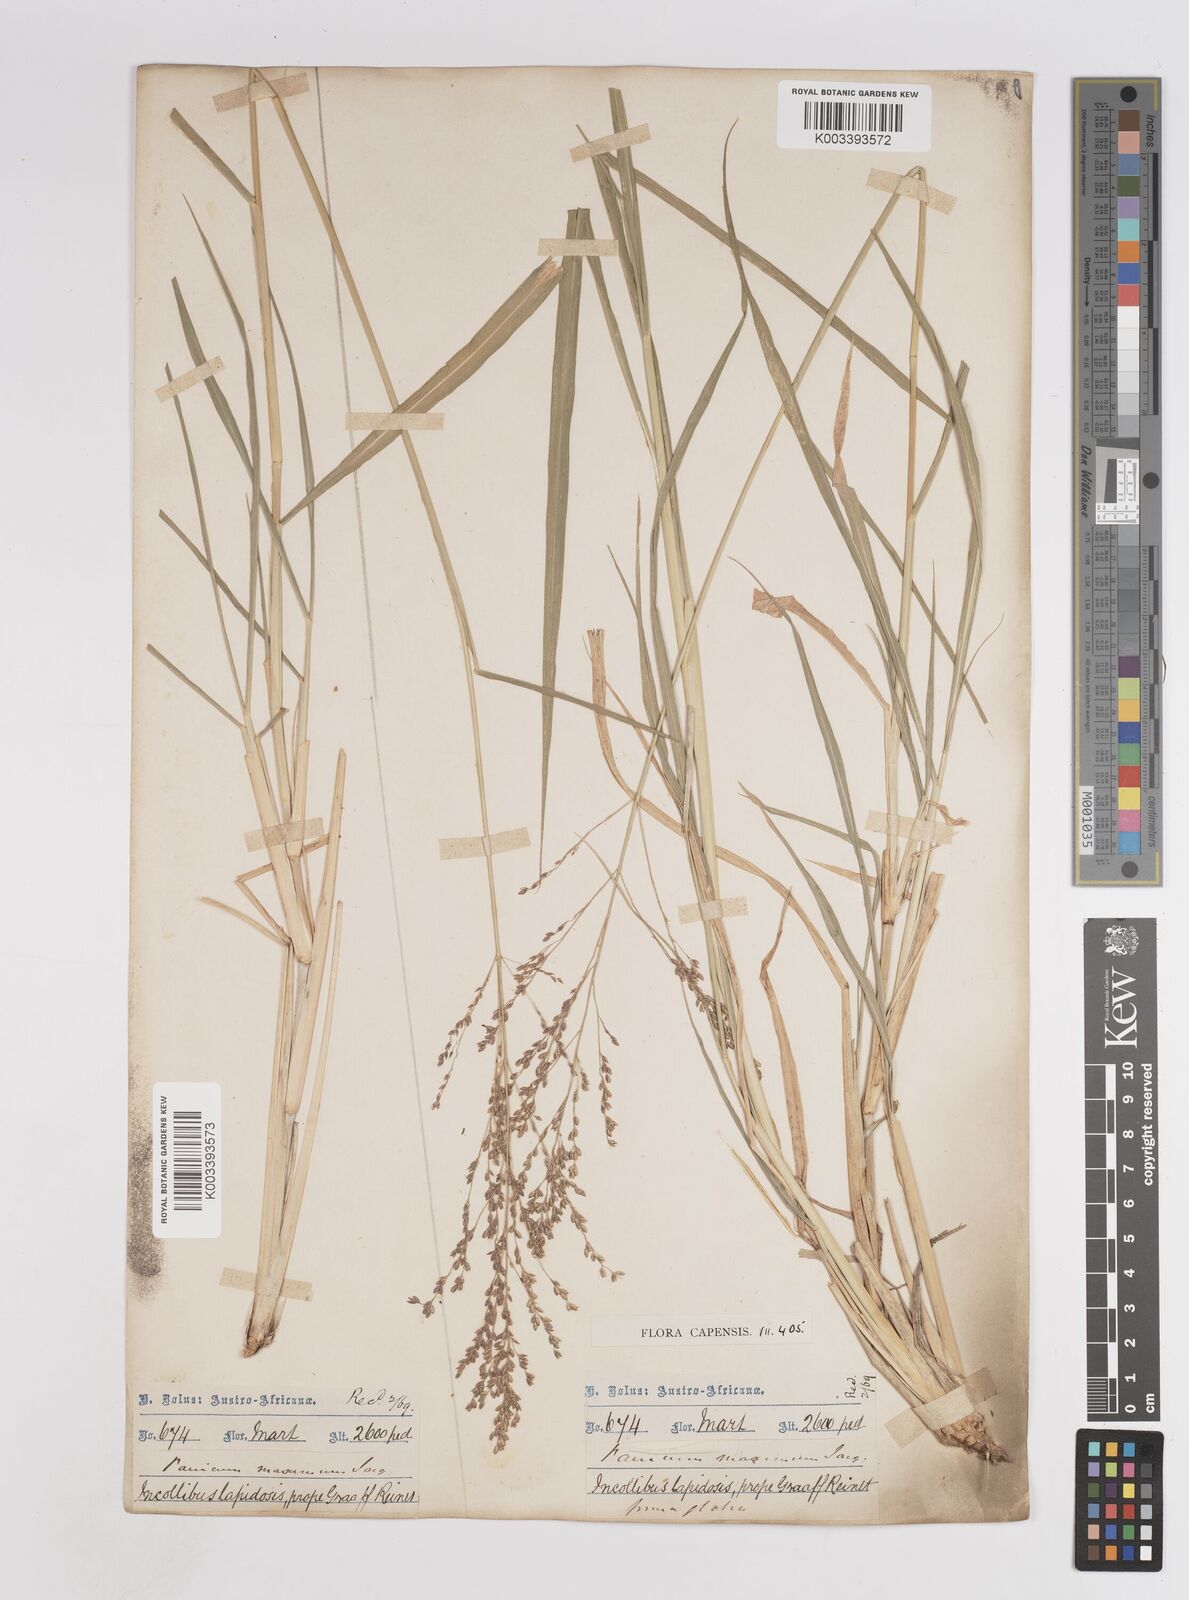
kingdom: Plantae
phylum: Tracheophyta
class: Liliopsida
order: Poales
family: Poaceae
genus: Megathyrsus
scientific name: Megathyrsus maximus
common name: Guineagrass
